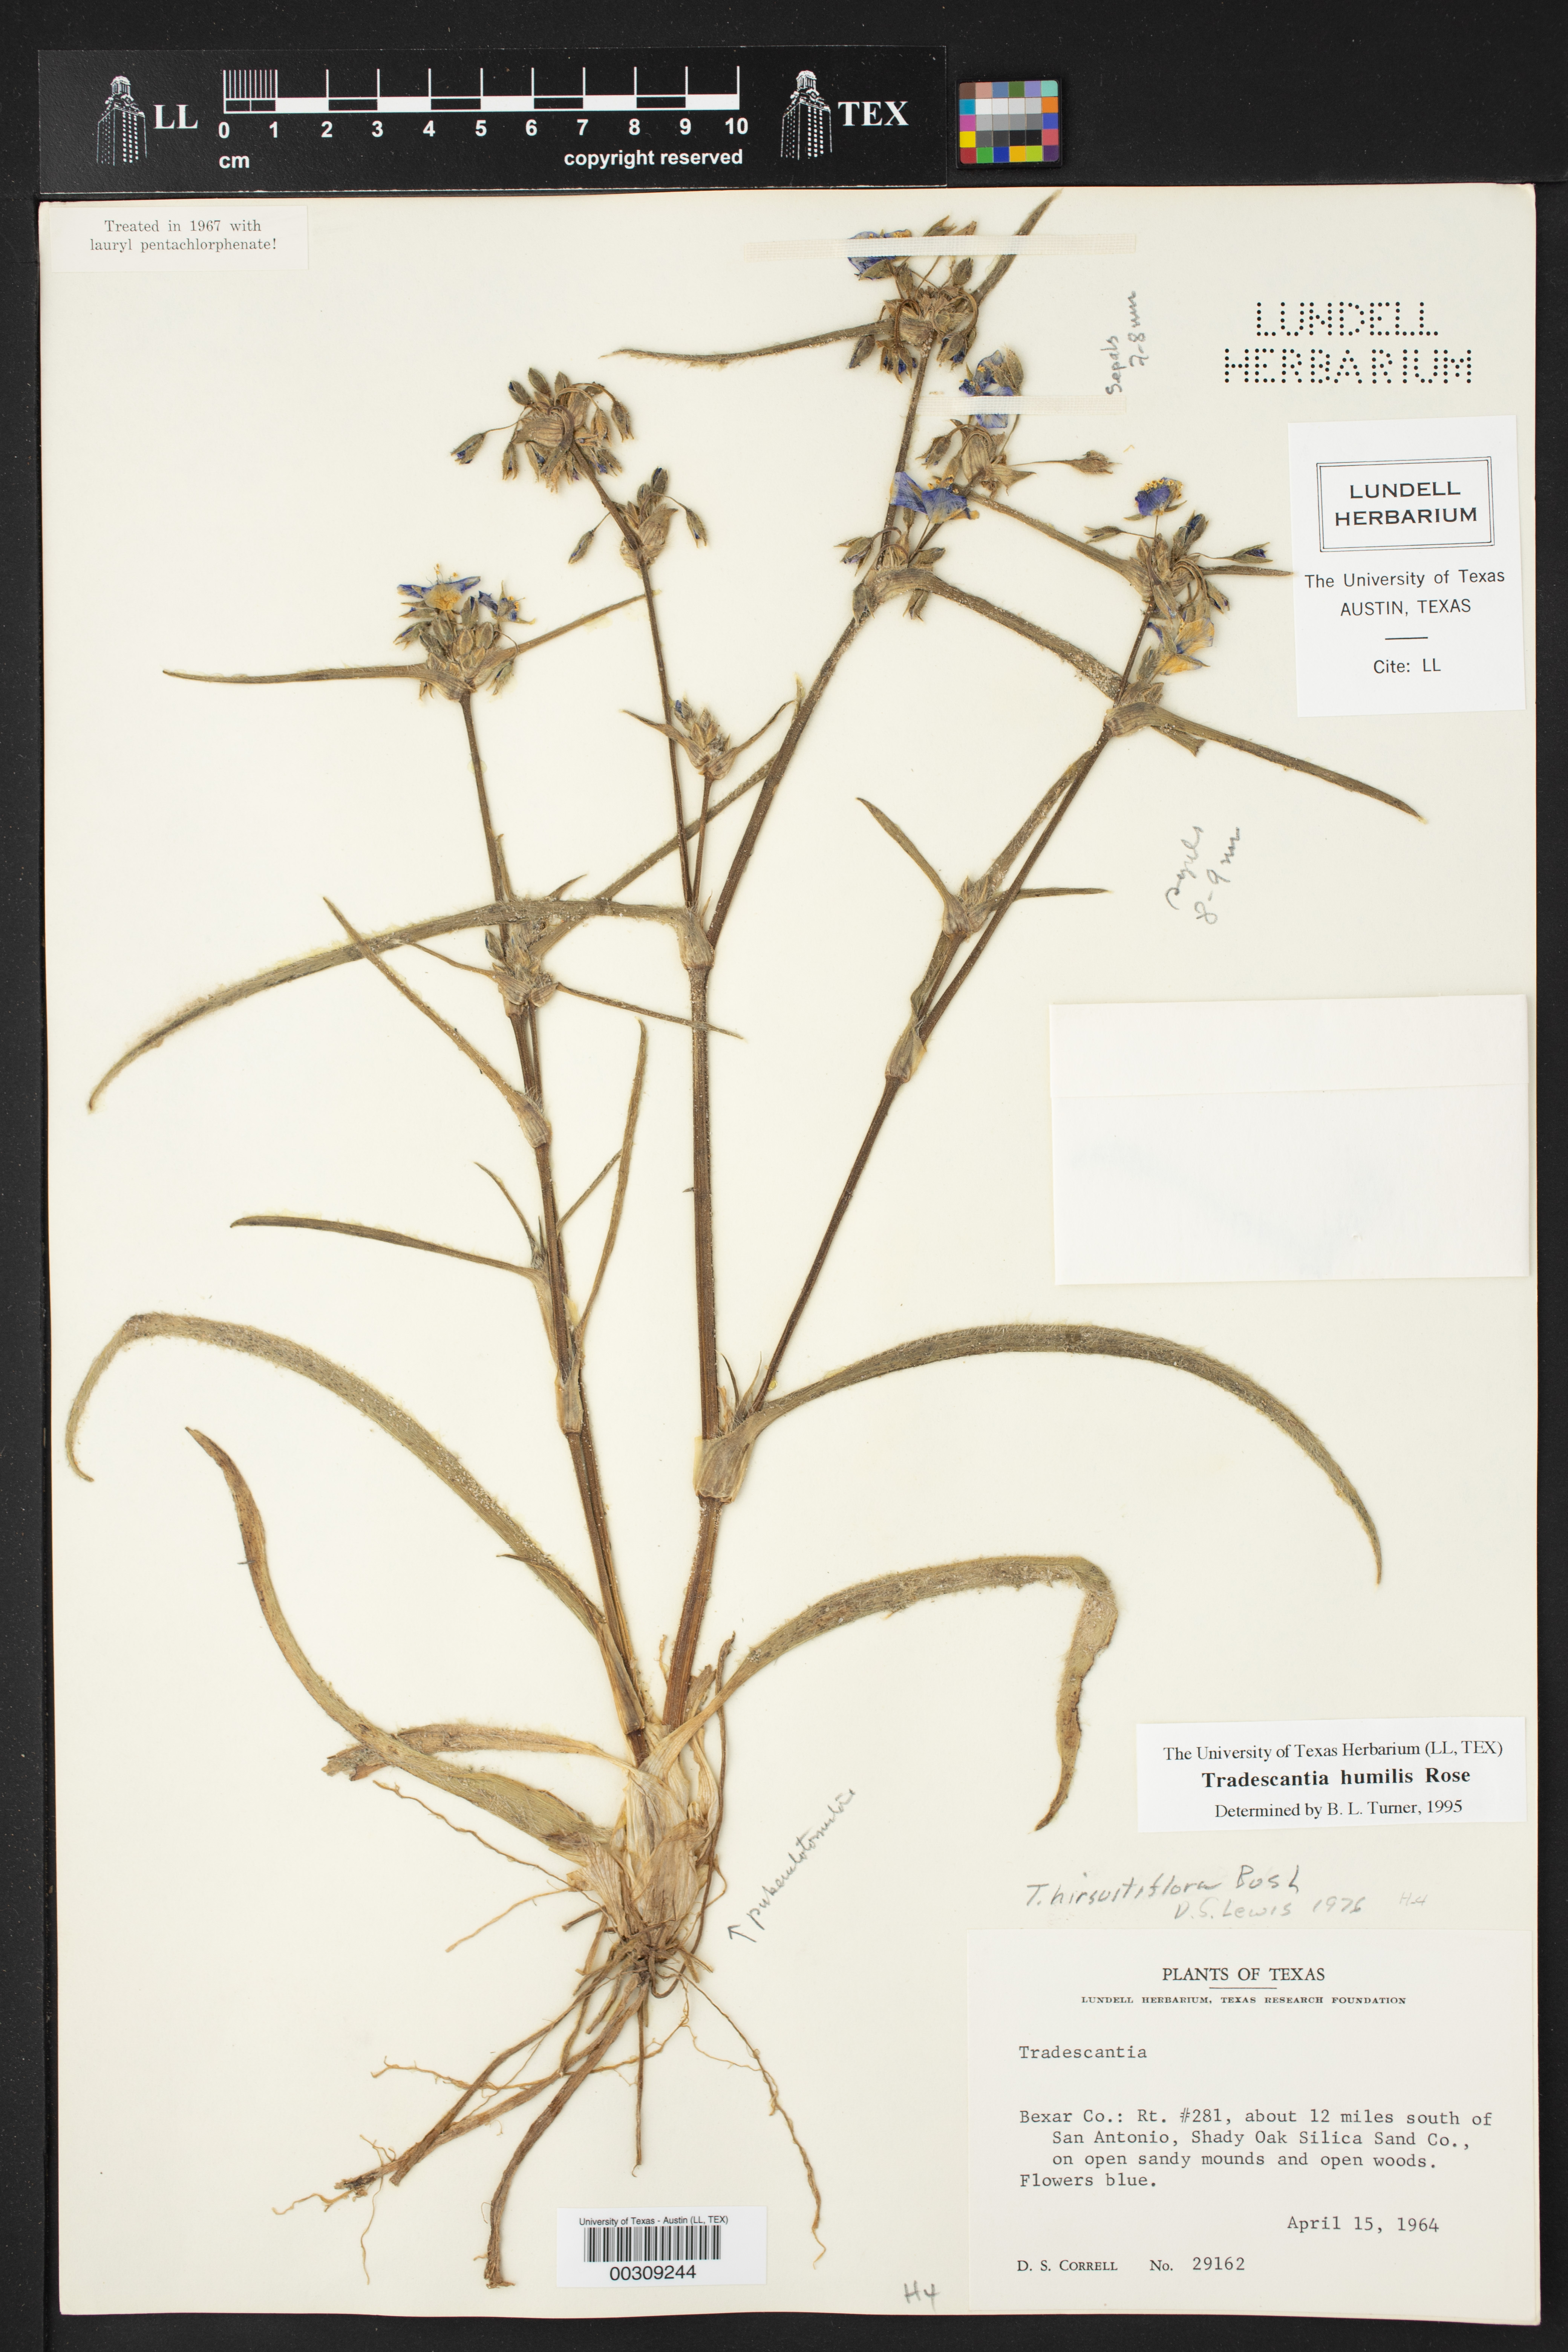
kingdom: Plantae
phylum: Tracheophyta
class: Liliopsida
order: Commelinales
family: Commelinaceae
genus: Tradescantia
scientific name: Tradescantia humilis
